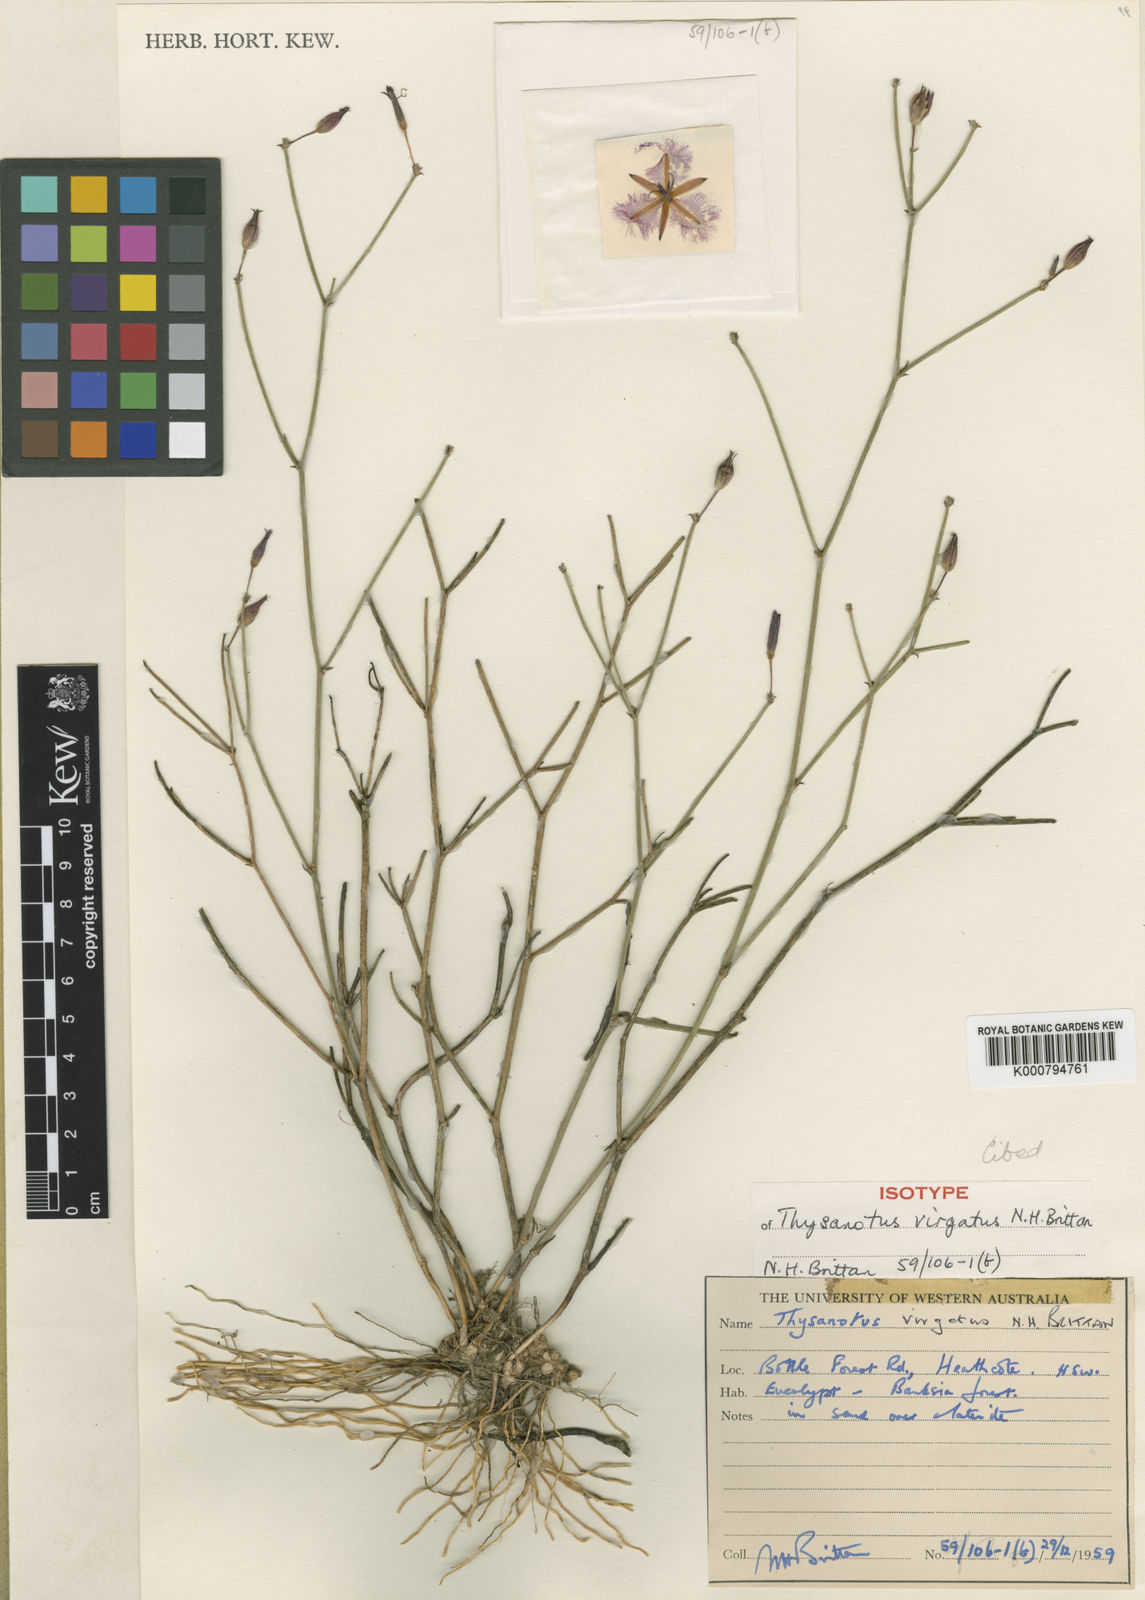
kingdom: Plantae
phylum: Tracheophyta
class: Liliopsida
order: Asparagales
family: Asparagaceae
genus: Thysanotus
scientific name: Thysanotus virgatus
